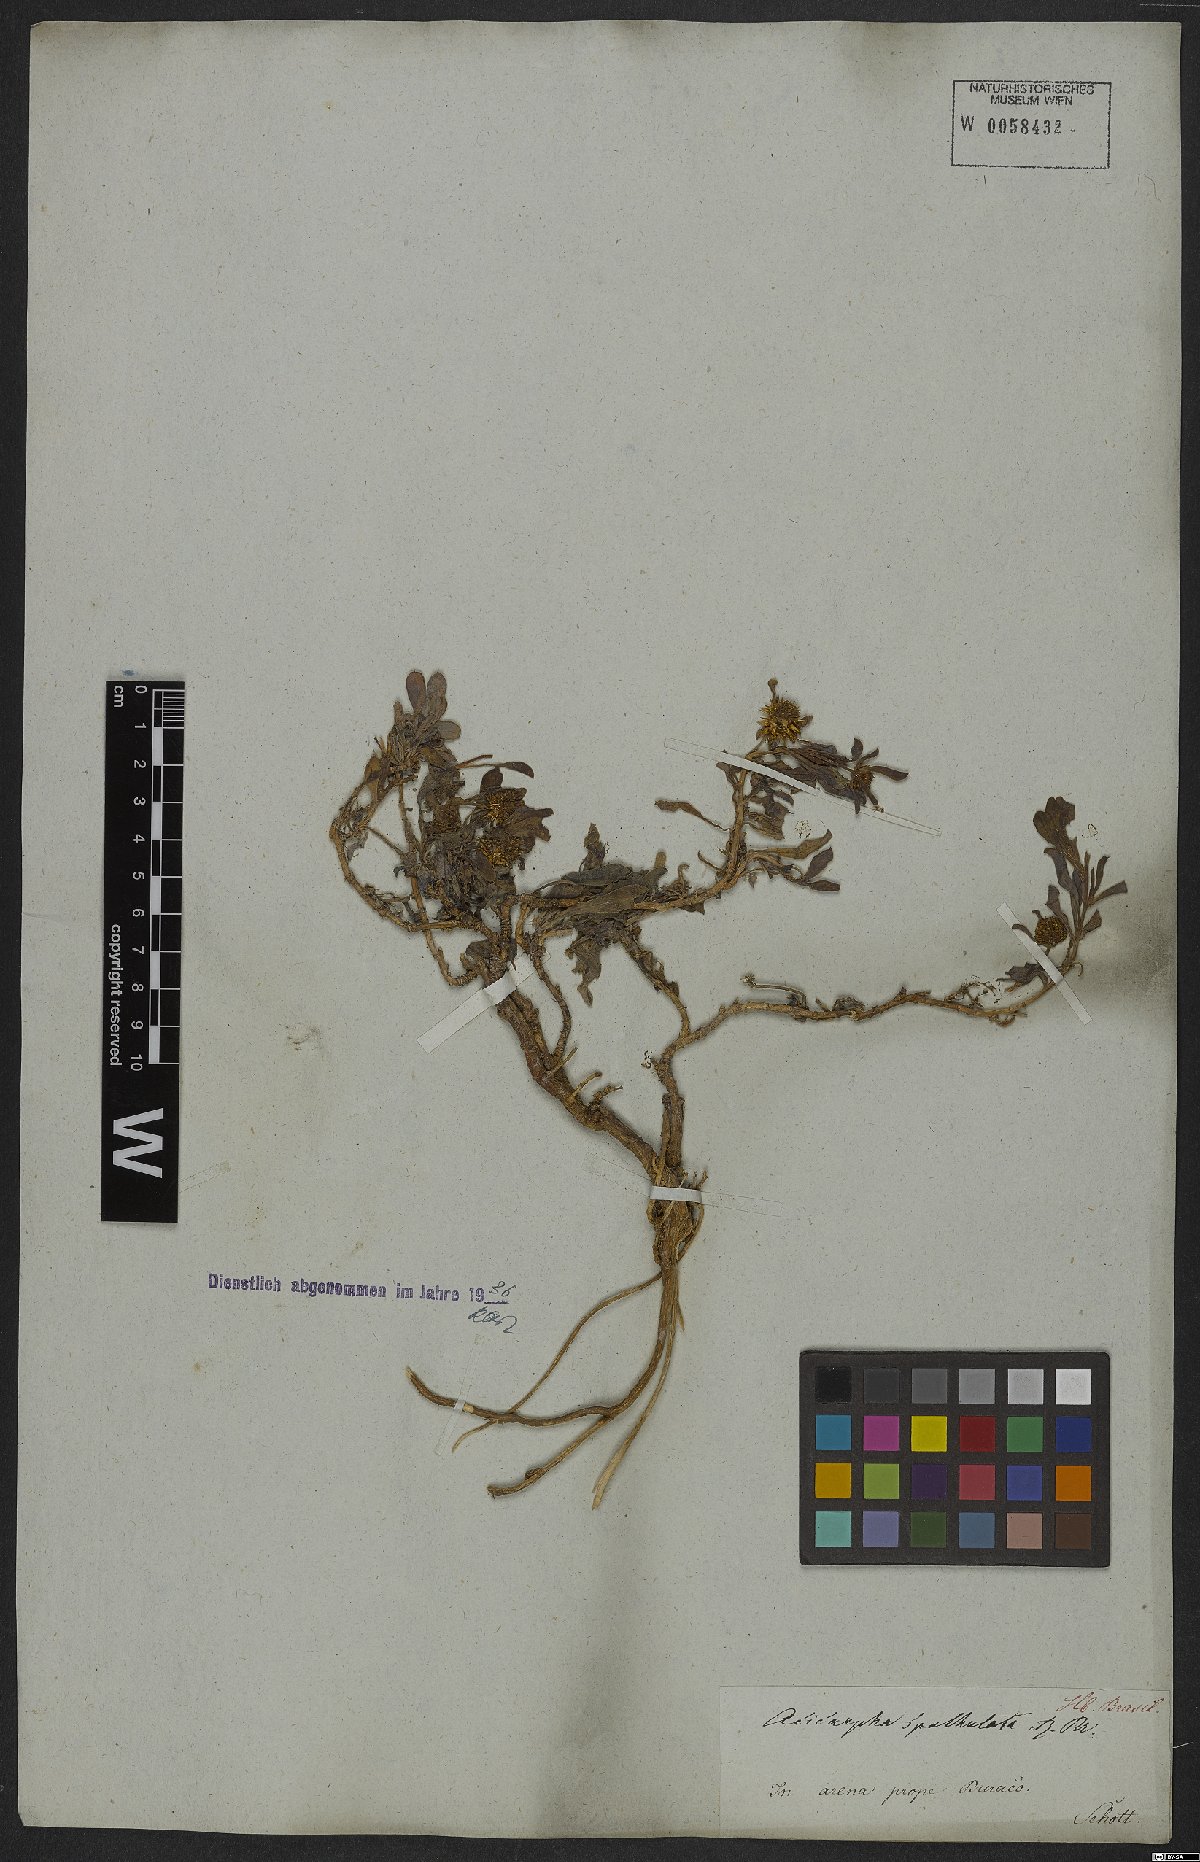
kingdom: Plantae
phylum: Tracheophyta
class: Magnoliopsida
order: Asterales
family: Calyceraceae
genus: Acicarpha
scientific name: Acicarpha spathulata
